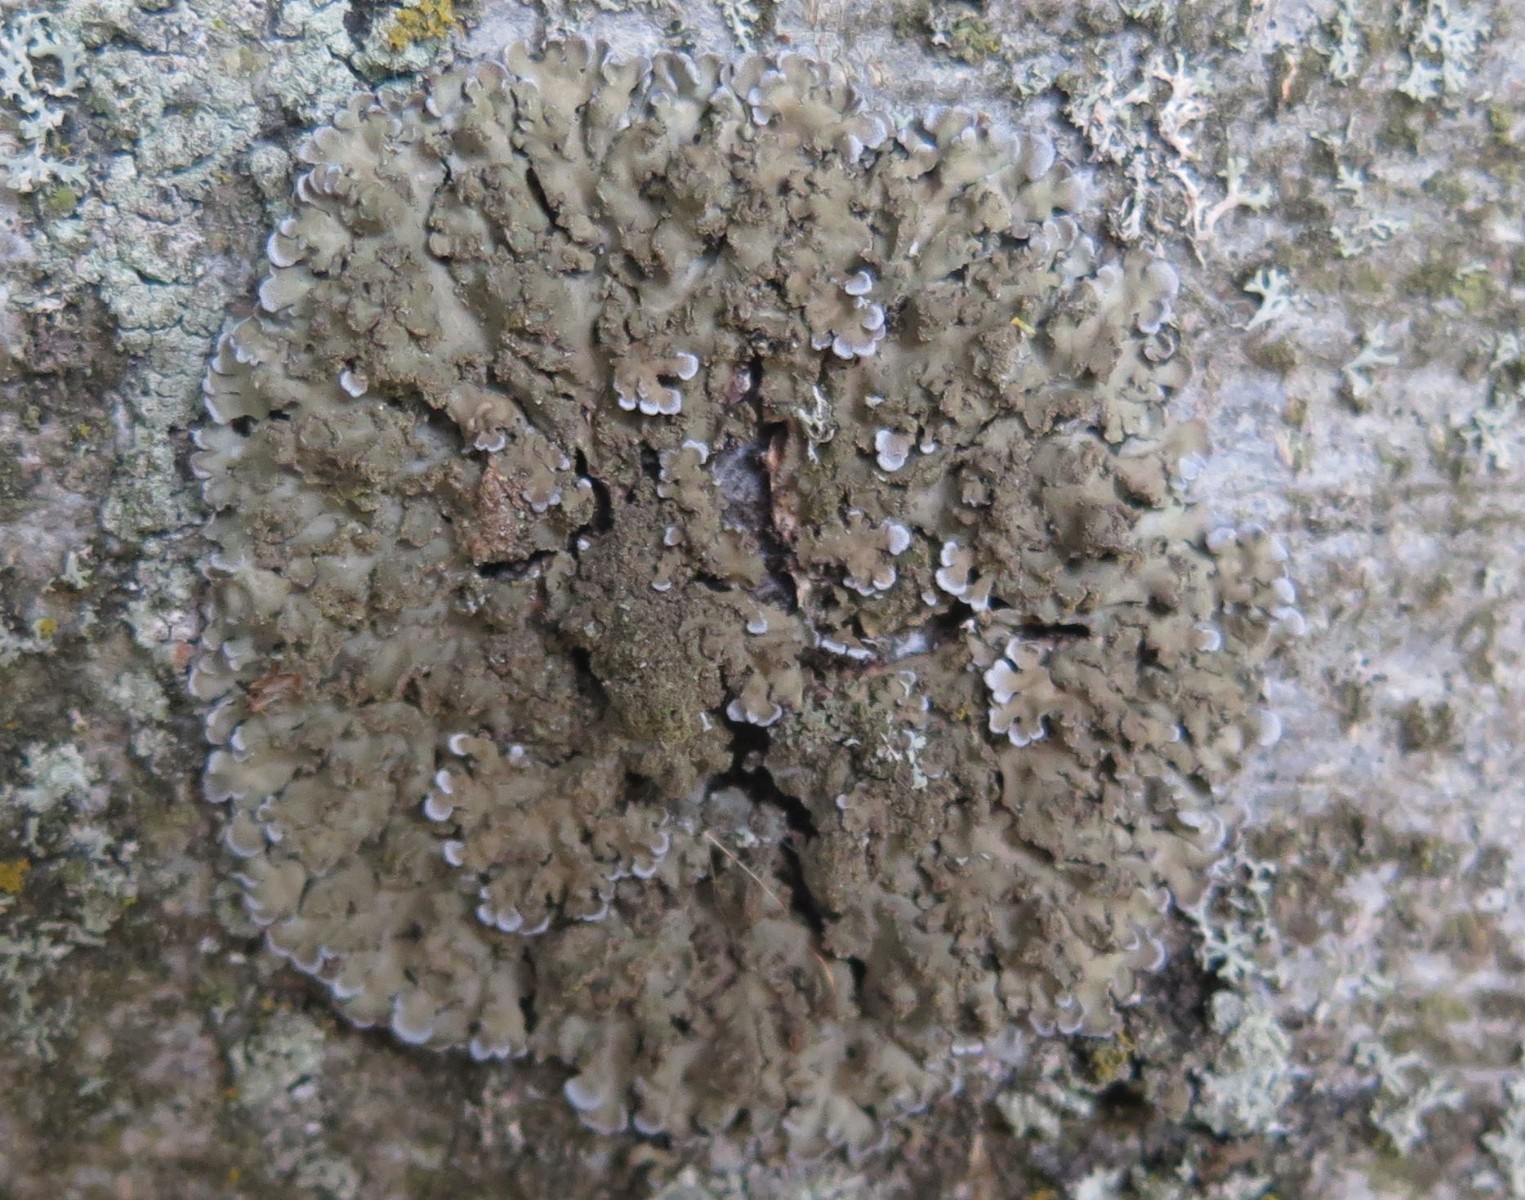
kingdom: Fungi
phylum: Ascomycota
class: Lecanoromycetes
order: Caliciales
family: Physciaceae
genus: Physconia
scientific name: Physconia enteroxantha
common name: grynet dugrosetlav
